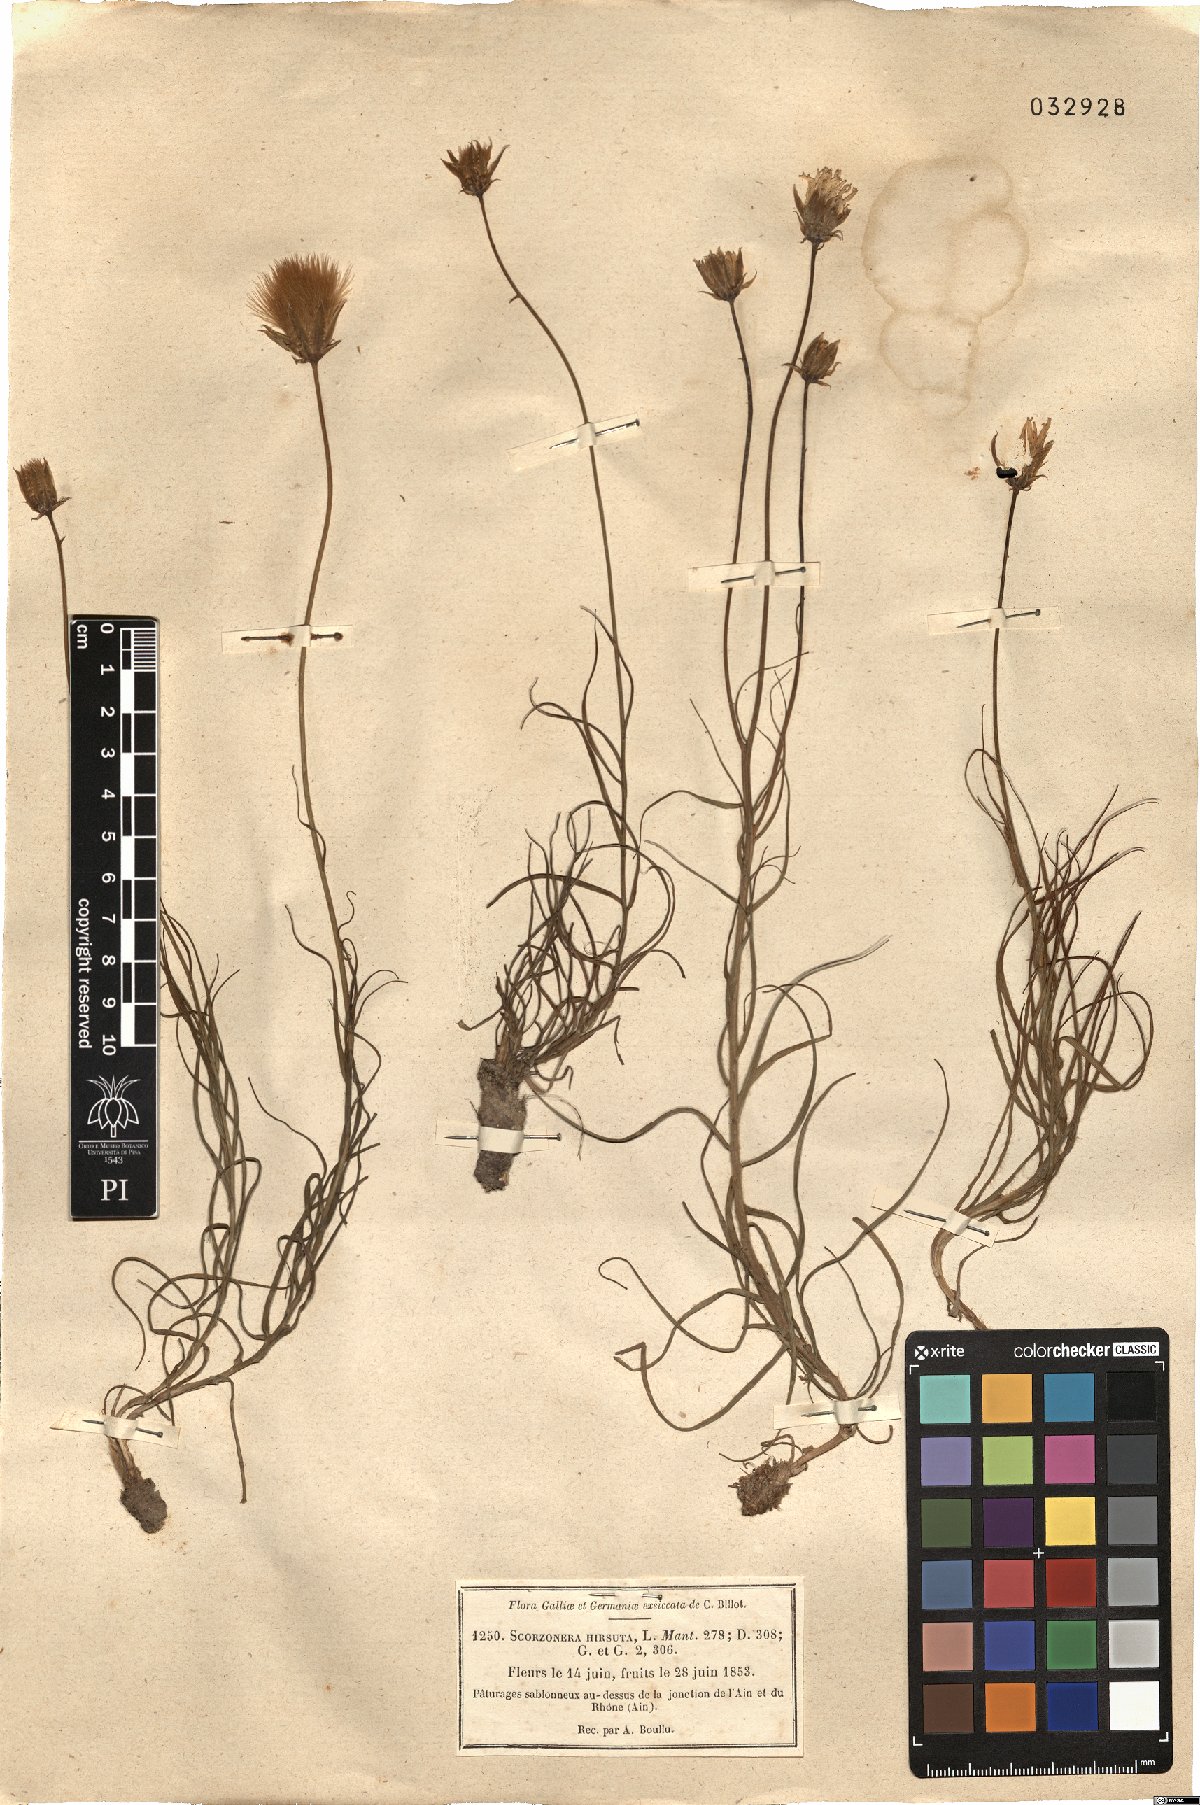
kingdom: Plantae
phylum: Tracheophyta
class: Magnoliopsida
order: Asterales
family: Asteraceae
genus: Gelasia
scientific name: Gelasia hirsuta
